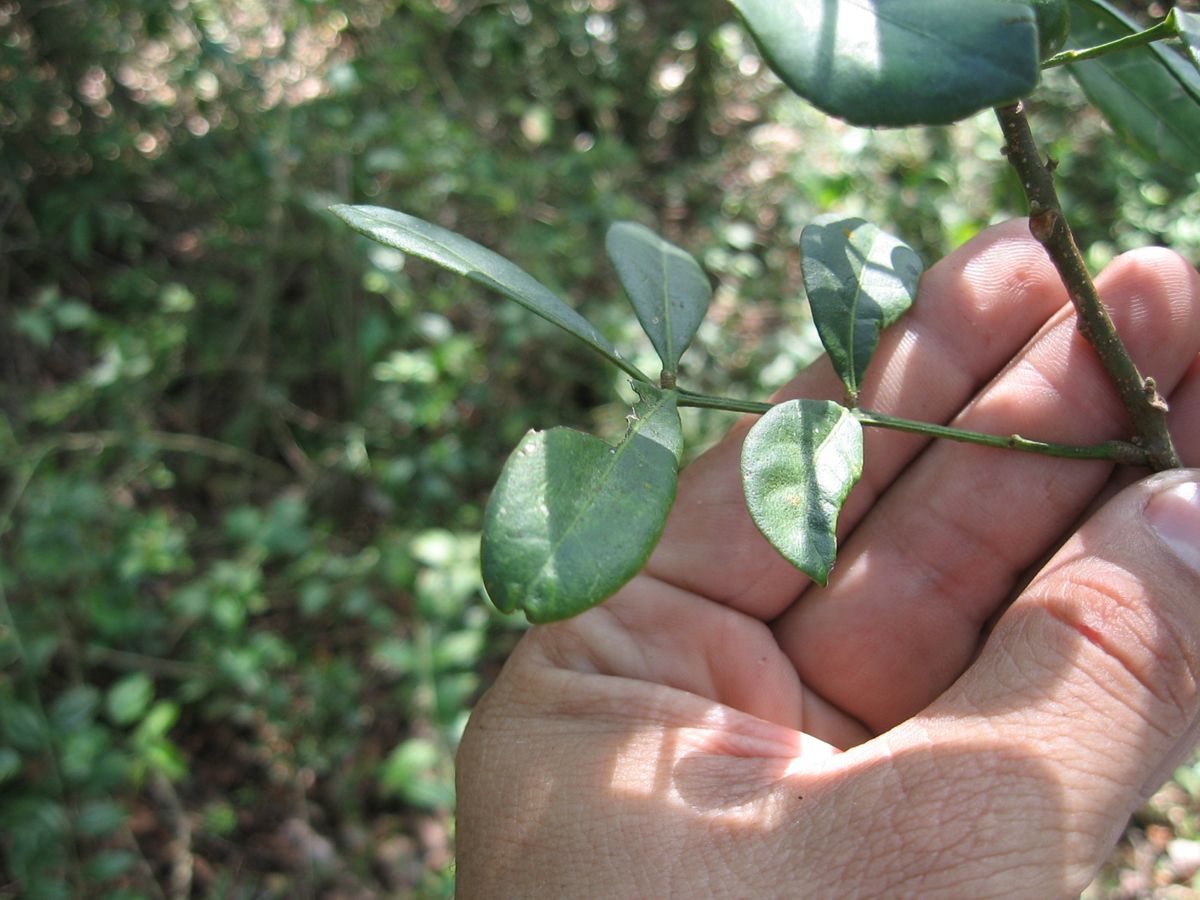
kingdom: Plantae
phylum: Tracheophyta
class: Magnoliopsida
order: Sapindales
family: Meliaceae
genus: Trichilia
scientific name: Trichilia havanensis
